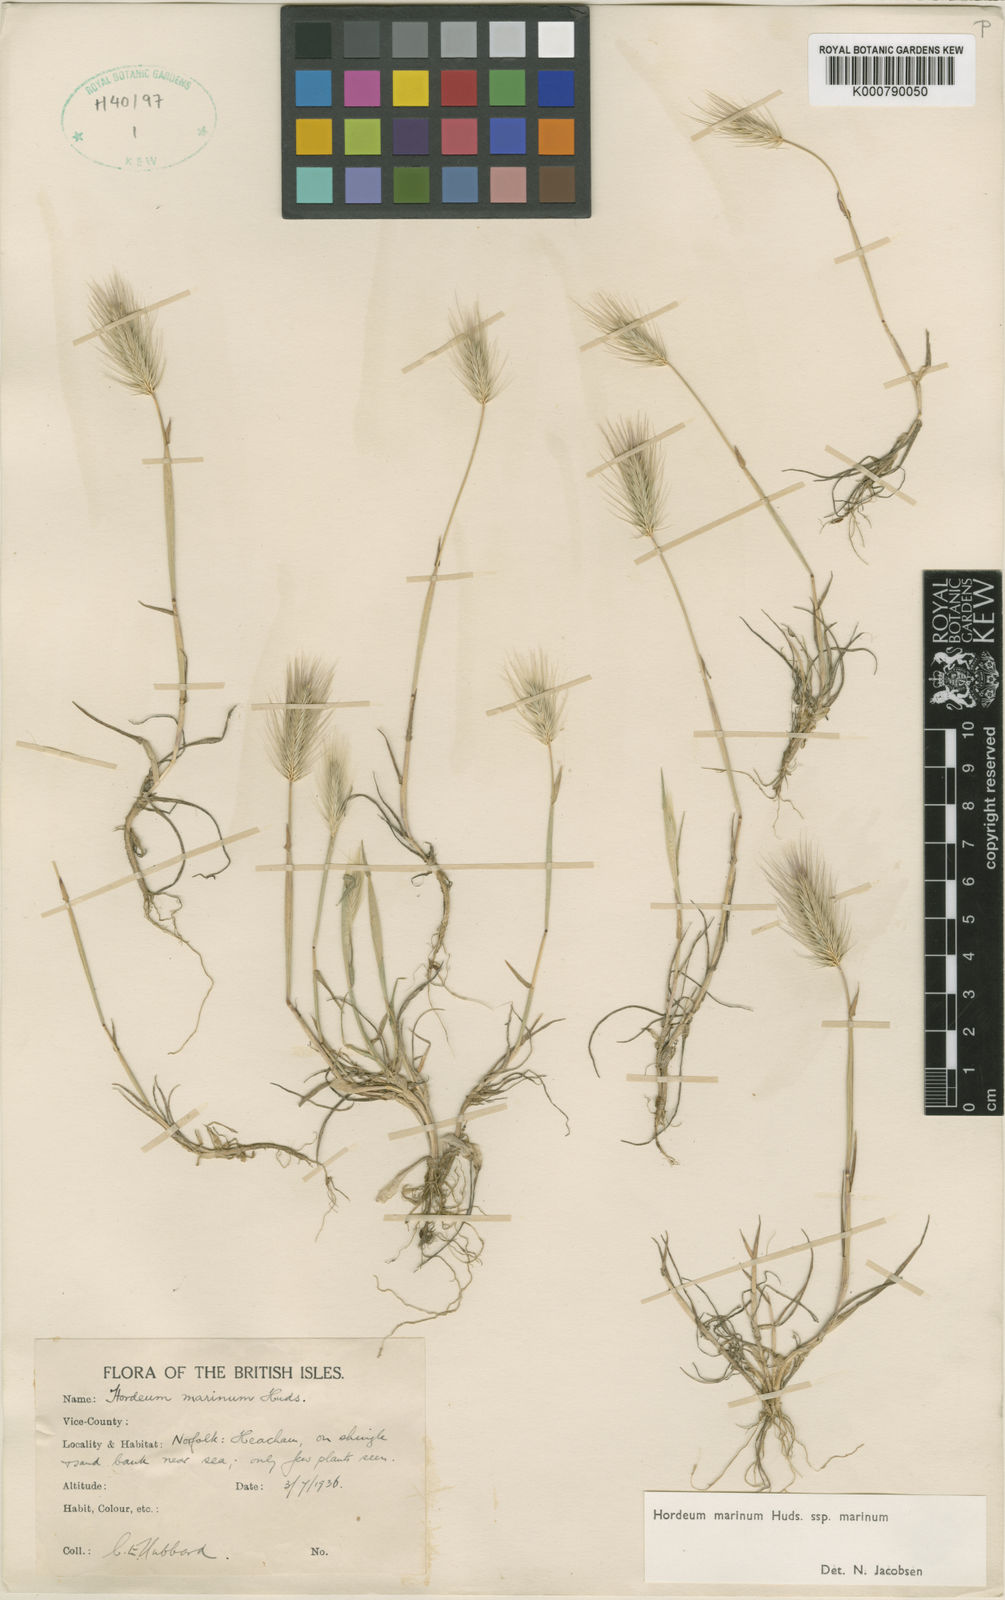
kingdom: Plantae
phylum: Tracheophyta
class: Liliopsida
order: Poales
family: Poaceae
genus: Hordeum
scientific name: Hordeum marinum
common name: Sea barley
